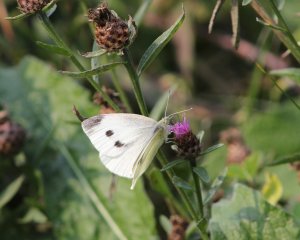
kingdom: Animalia
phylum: Arthropoda
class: Insecta
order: Lepidoptera
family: Pieridae
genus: Pieris
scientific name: Pieris rapae
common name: Cabbage White
